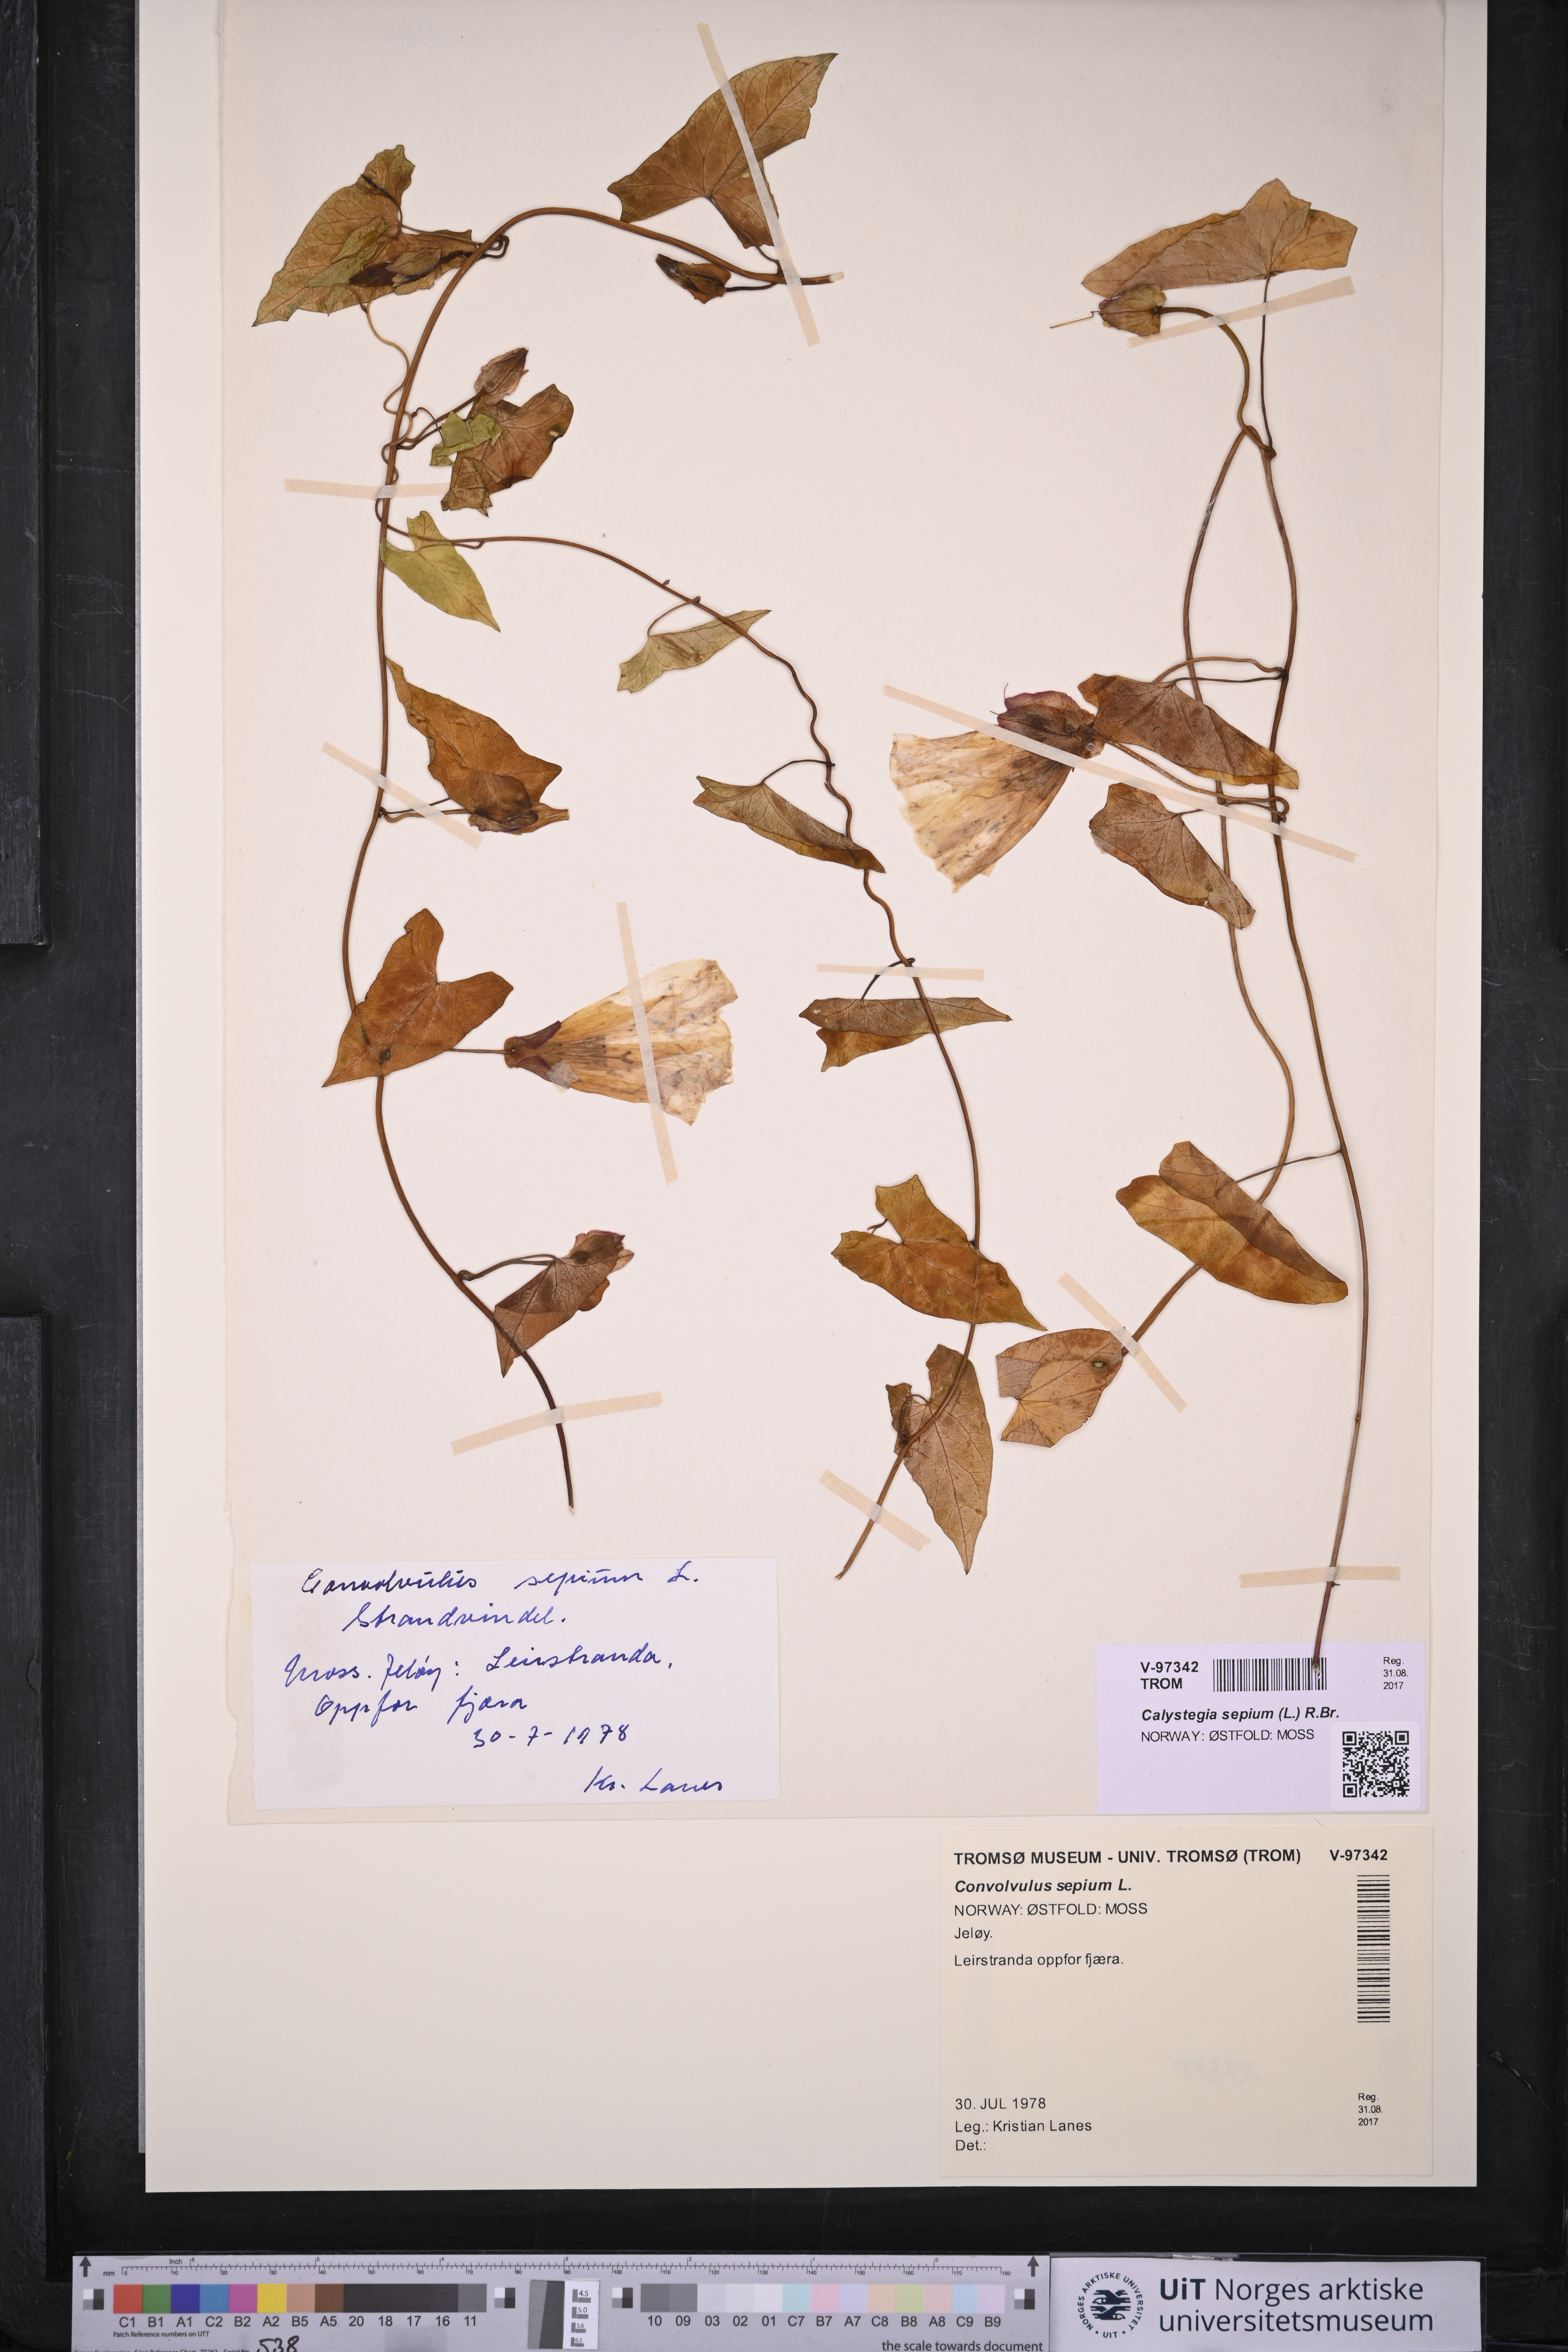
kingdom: Plantae
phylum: Tracheophyta
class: Magnoliopsida
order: Solanales
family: Convolvulaceae
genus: Calystegia
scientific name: Calystegia sepium
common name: Hedge bindweed
